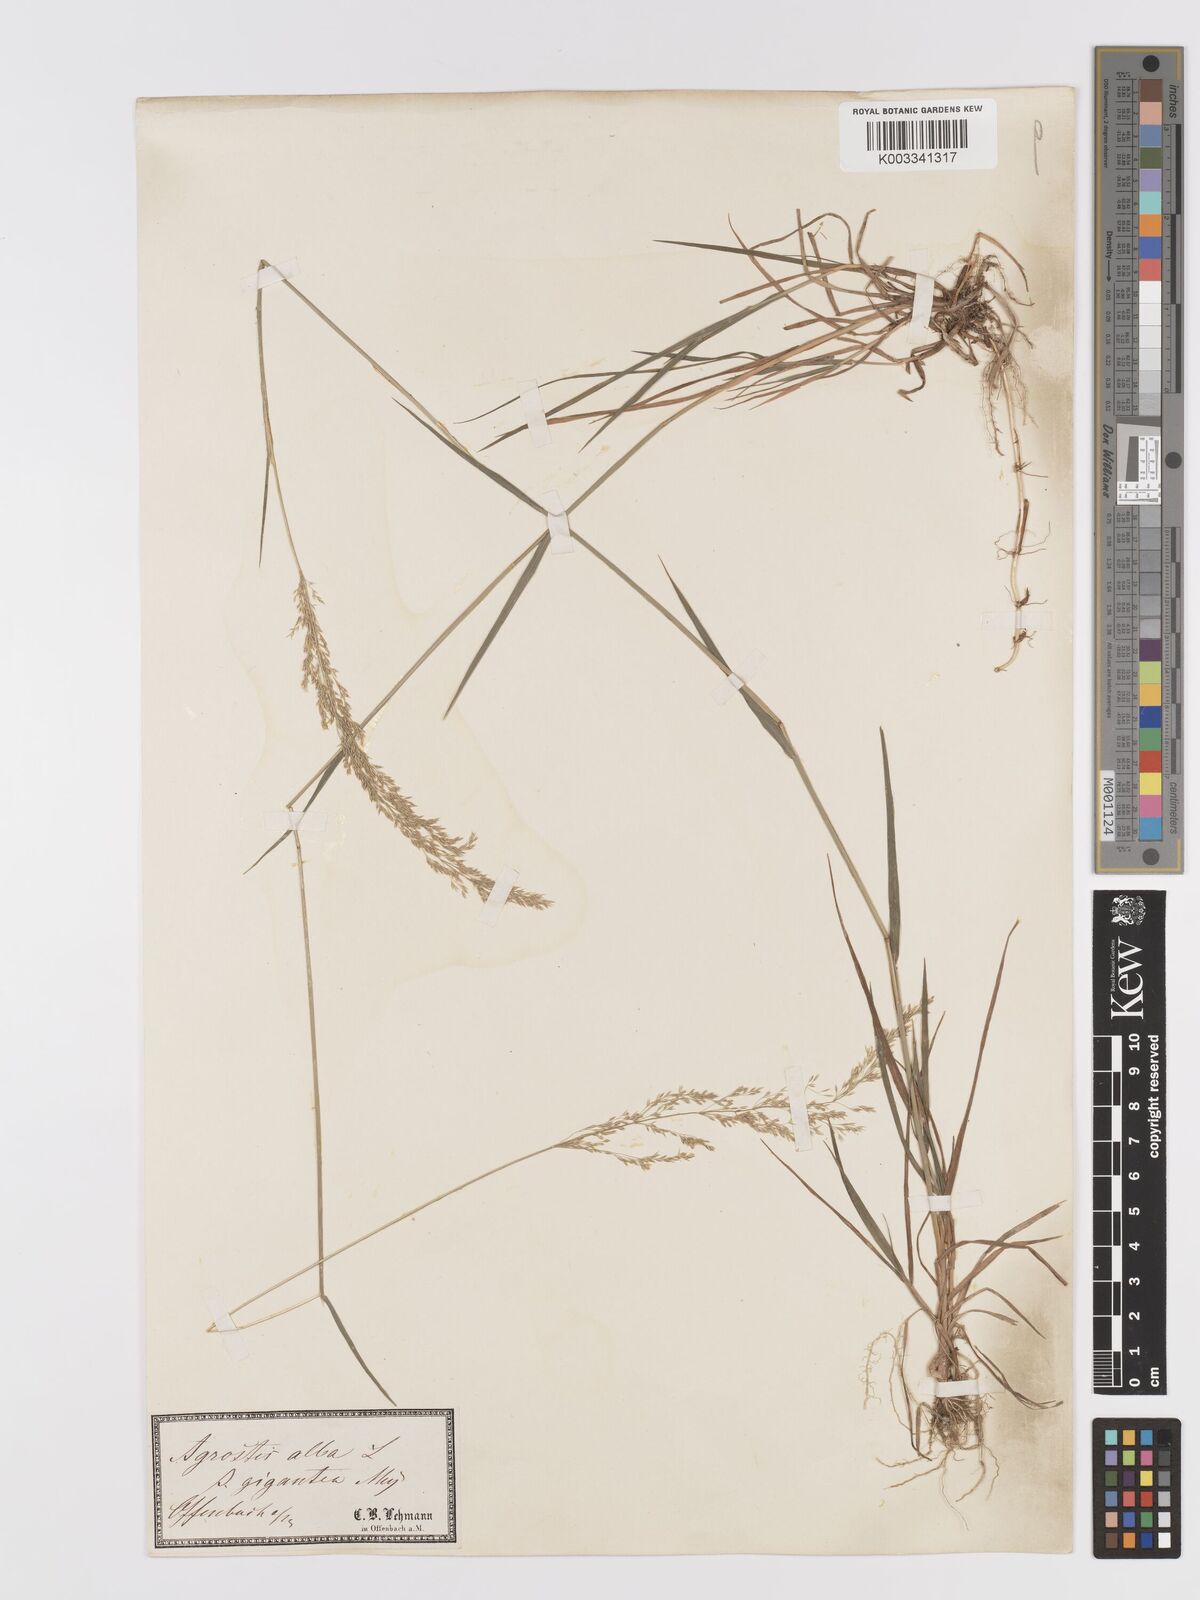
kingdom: Plantae
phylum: Tracheophyta
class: Liliopsida
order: Poales
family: Poaceae
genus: Agrostis
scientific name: Agrostis gigantea
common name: Black bent
